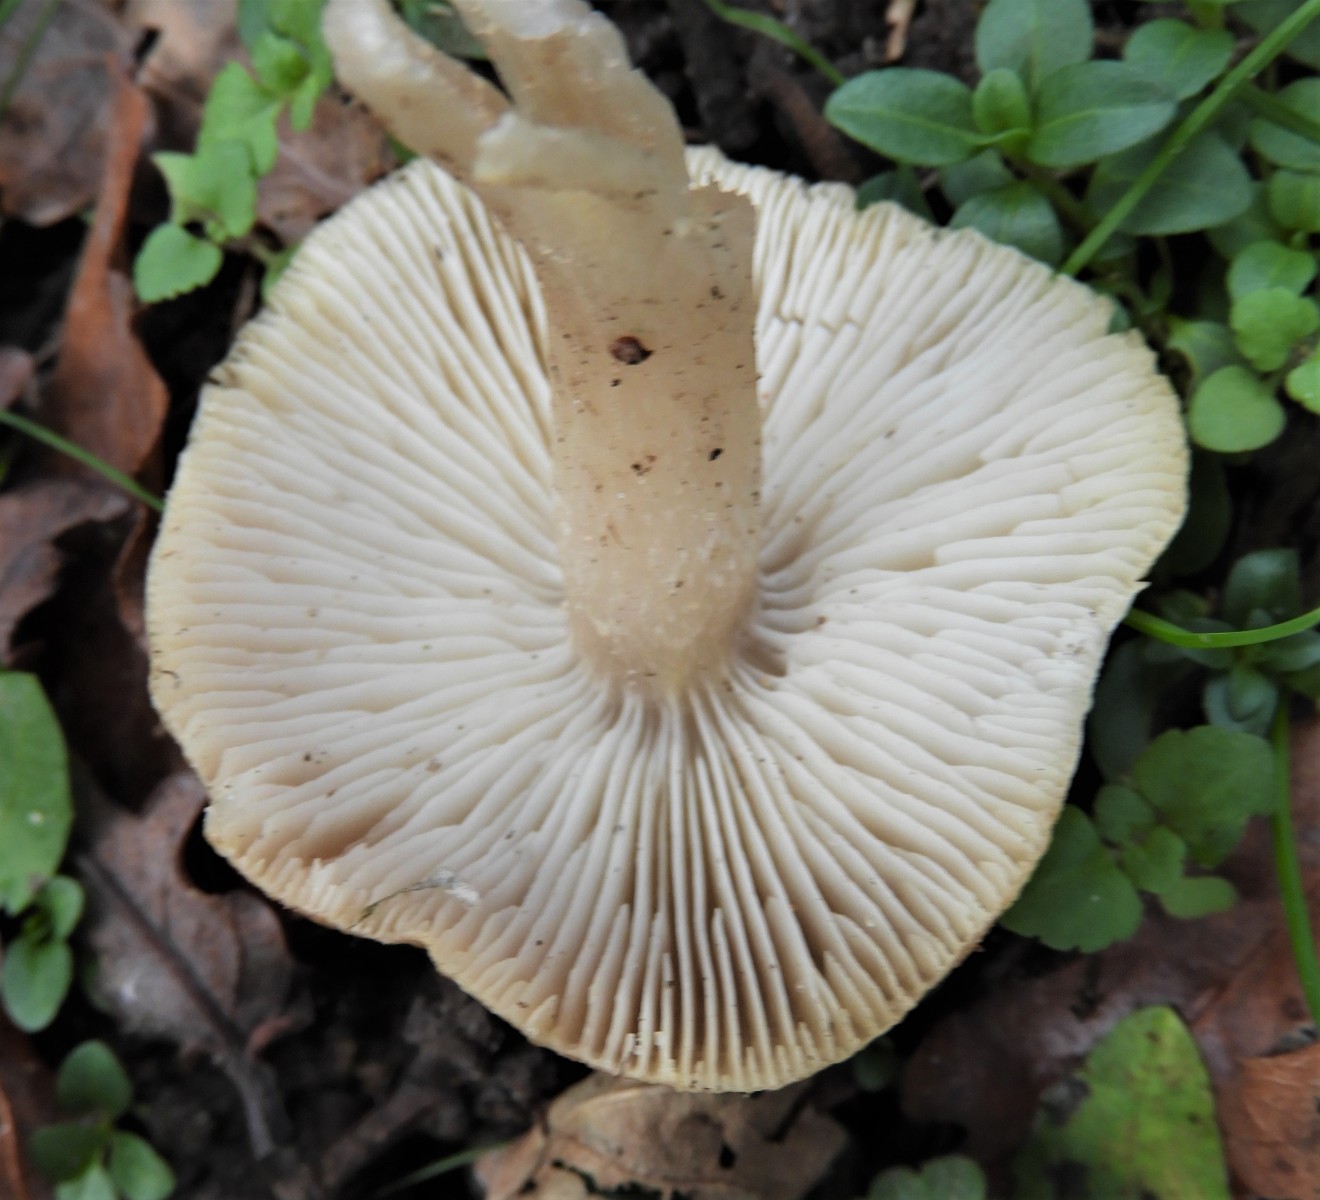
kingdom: Fungi
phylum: Basidiomycota
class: Agaricomycetes
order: Agaricales
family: Tricholomataceae
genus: Tricholoma
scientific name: Tricholoma scalpturatum
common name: gulplettet ridderhat
